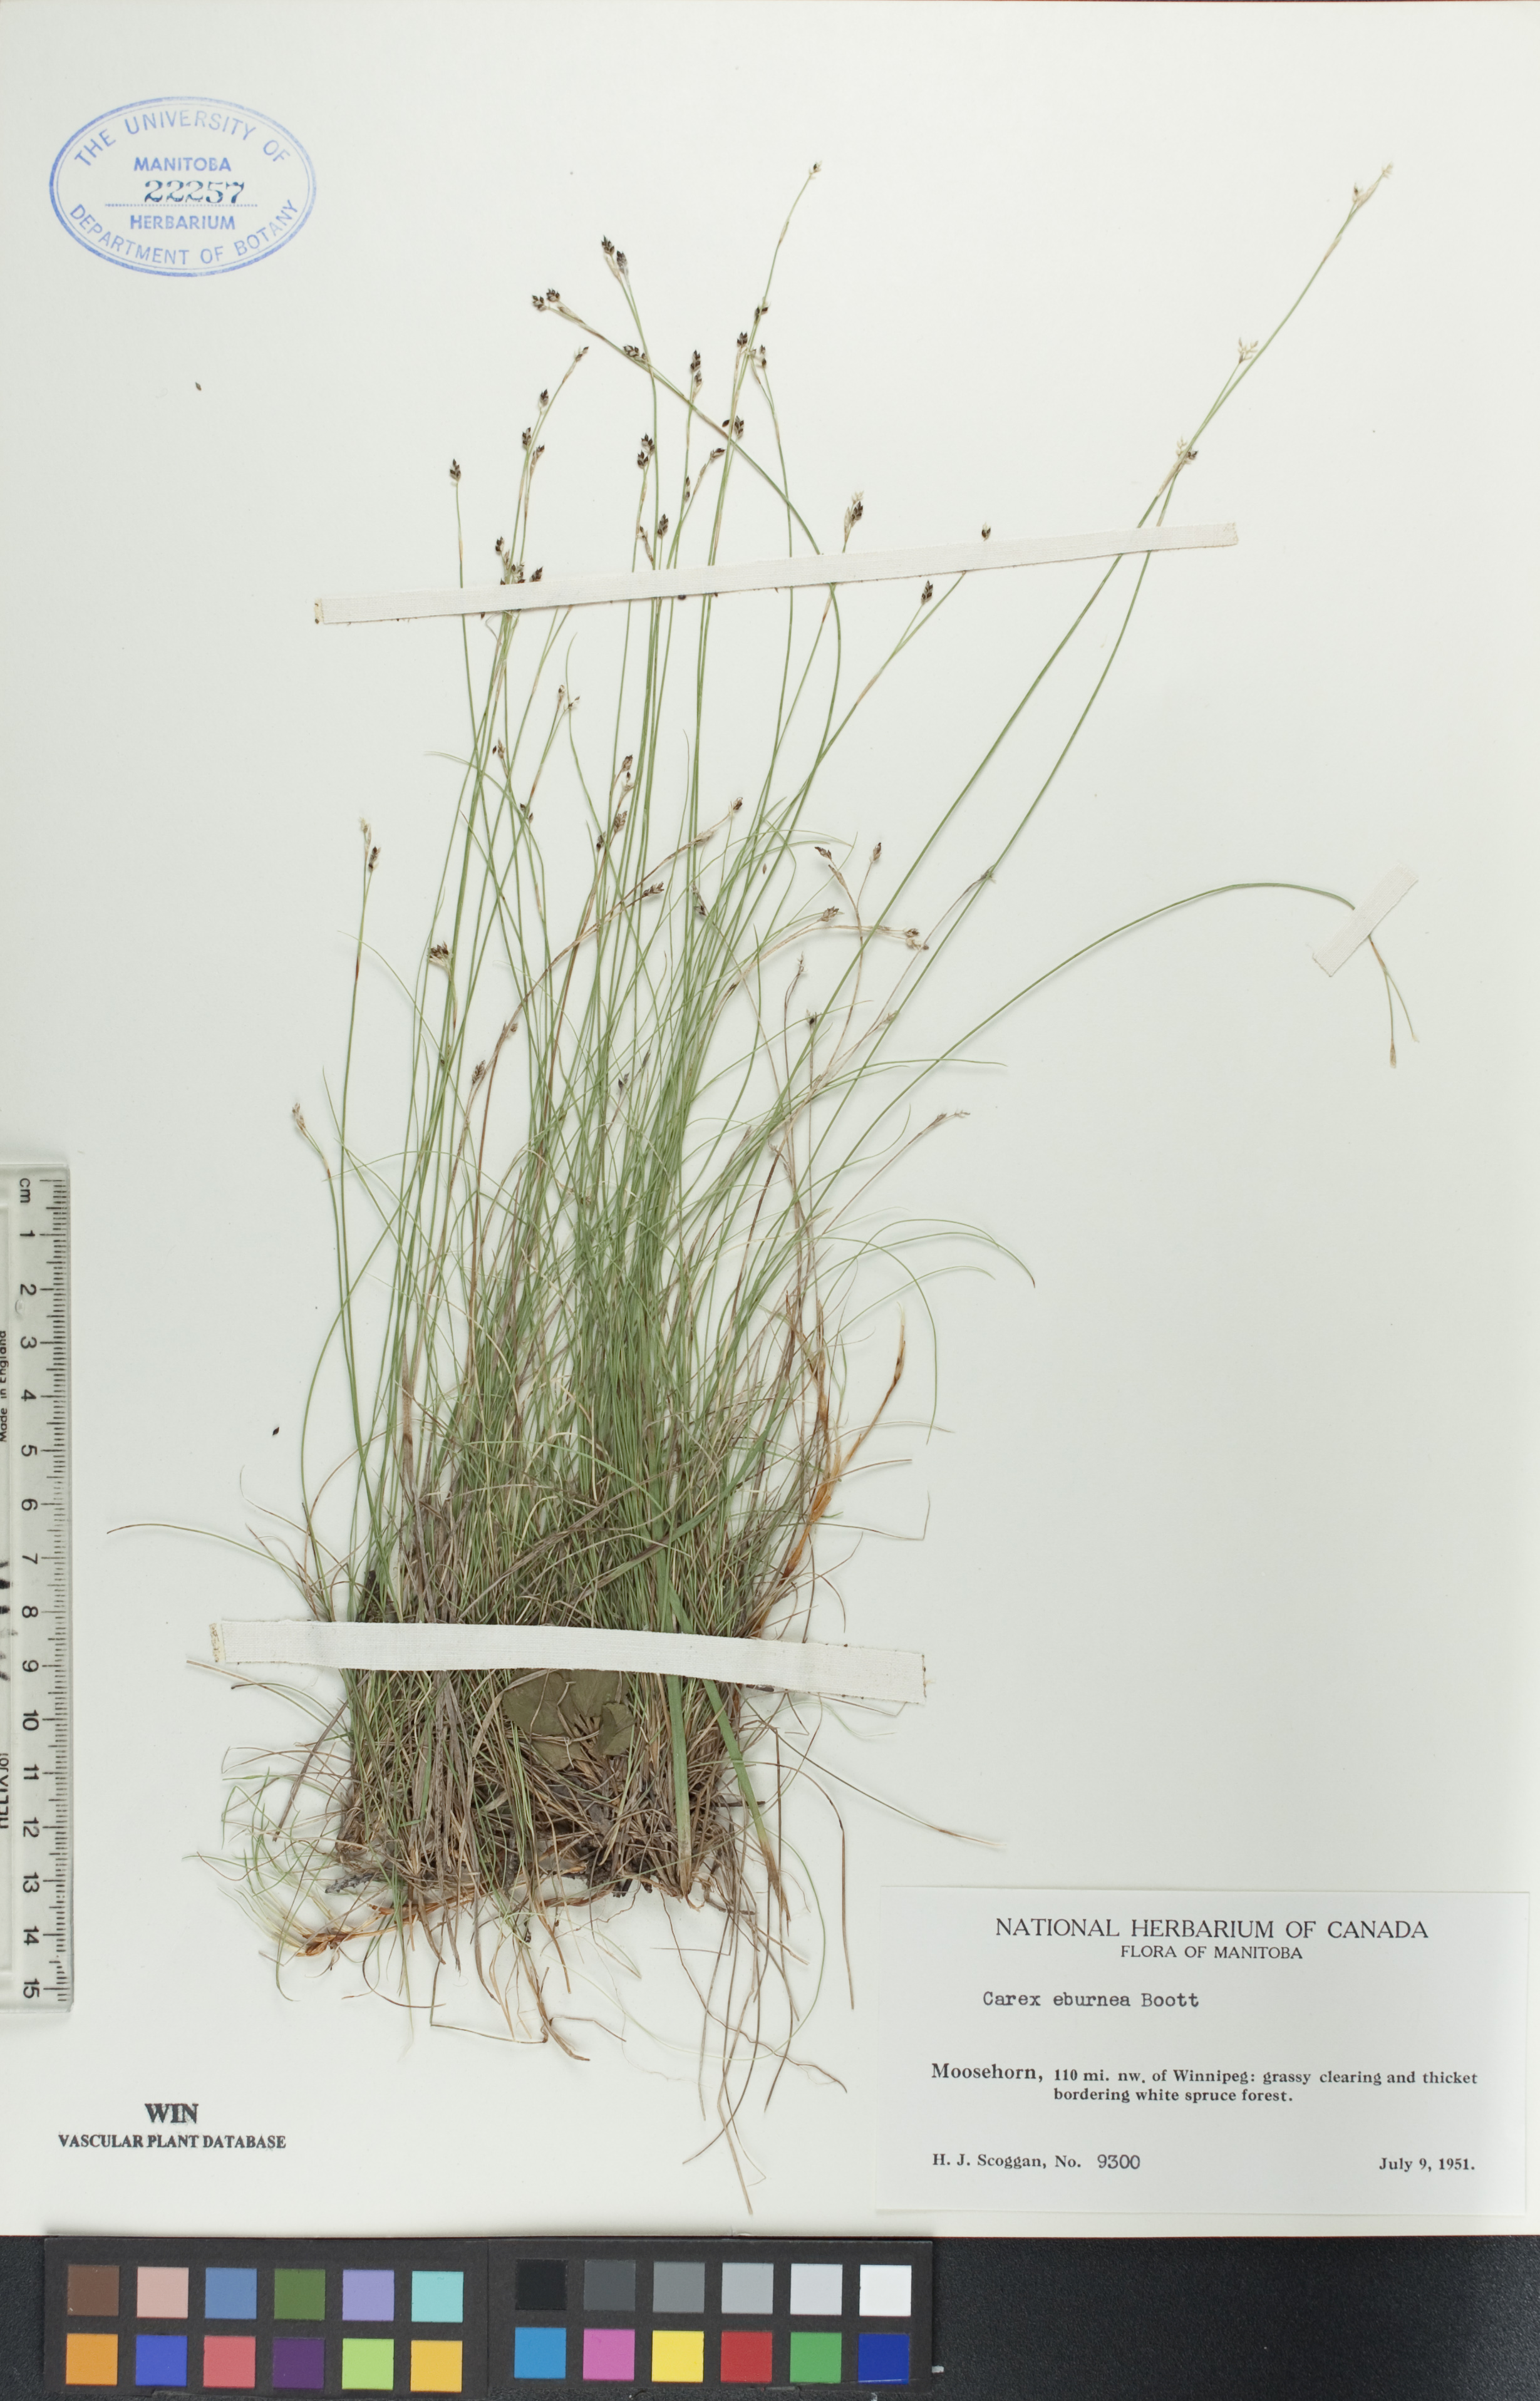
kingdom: Plantae
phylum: Tracheophyta
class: Liliopsida
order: Poales
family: Cyperaceae
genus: Carex
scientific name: Carex eburnea
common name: Bristle-leaved sedge
